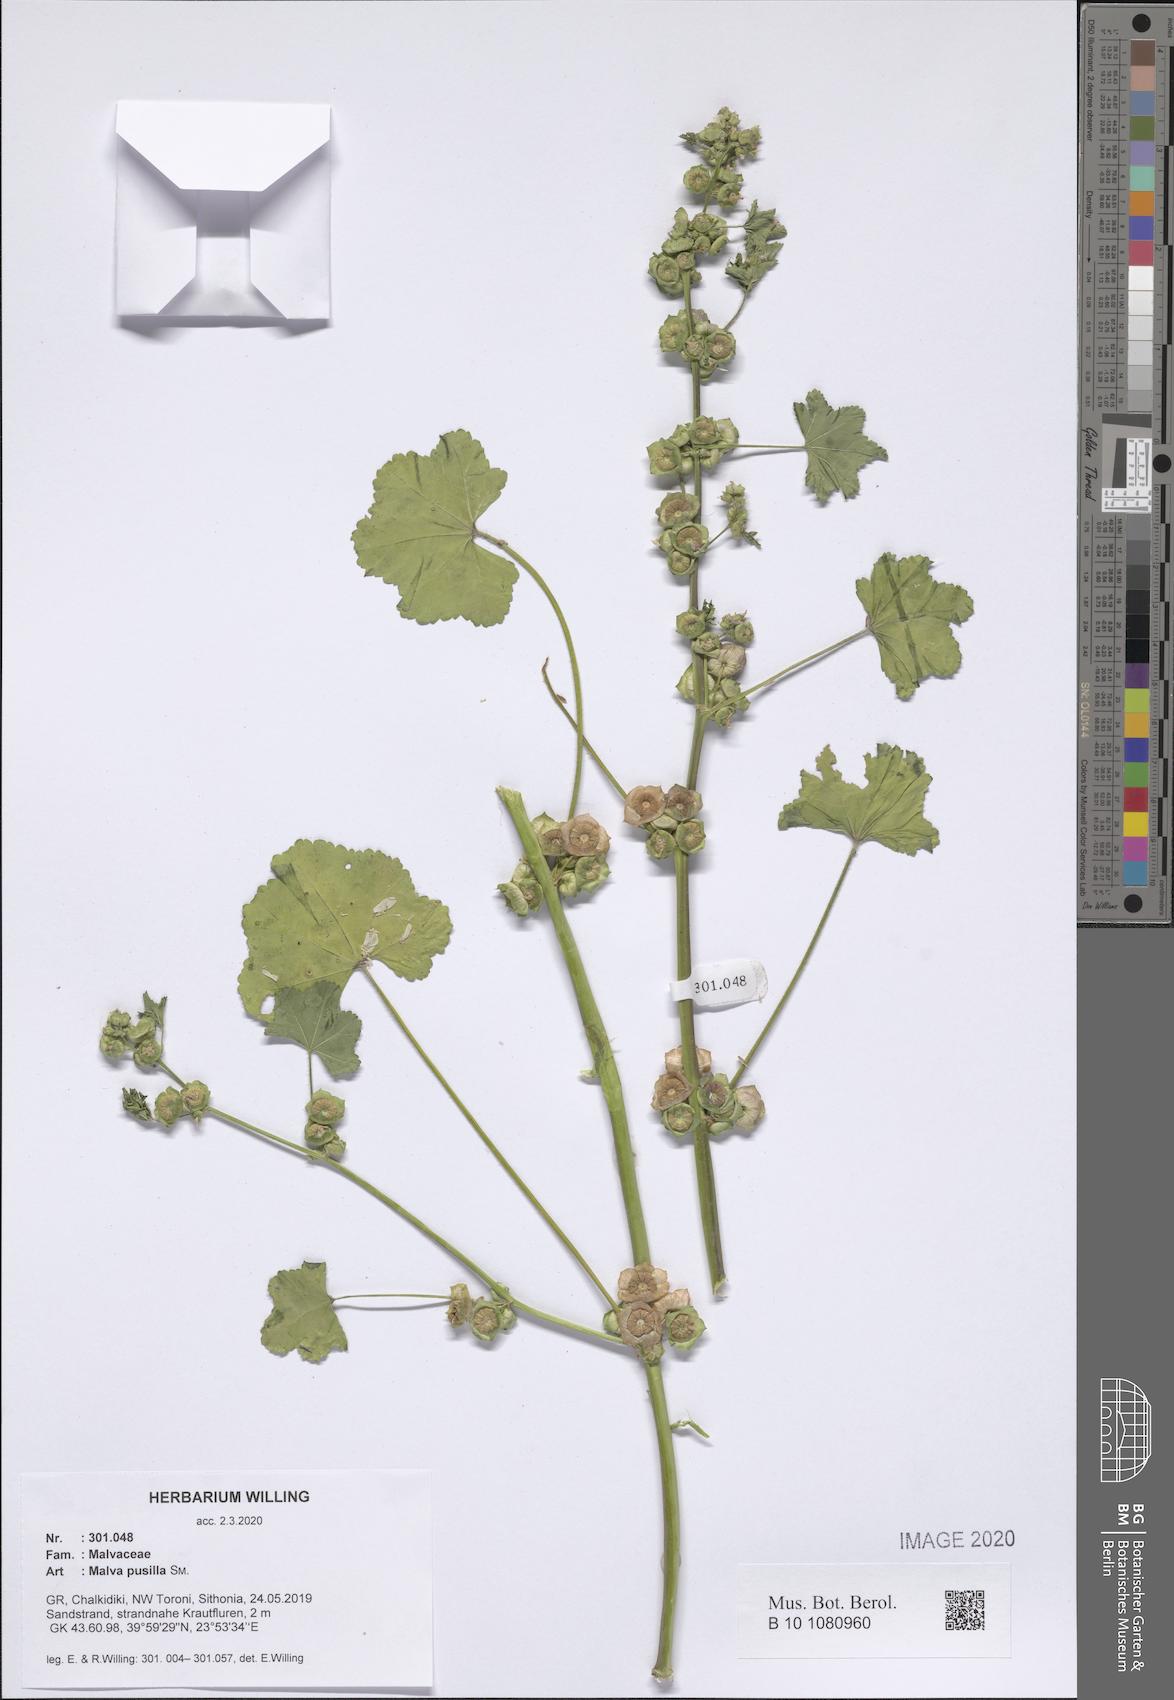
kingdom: Plantae
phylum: Tracheophyta
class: Magnoliopsida
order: Malvales
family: Malvaceae
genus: Malva
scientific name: Malva pusilla
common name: Small mallow
